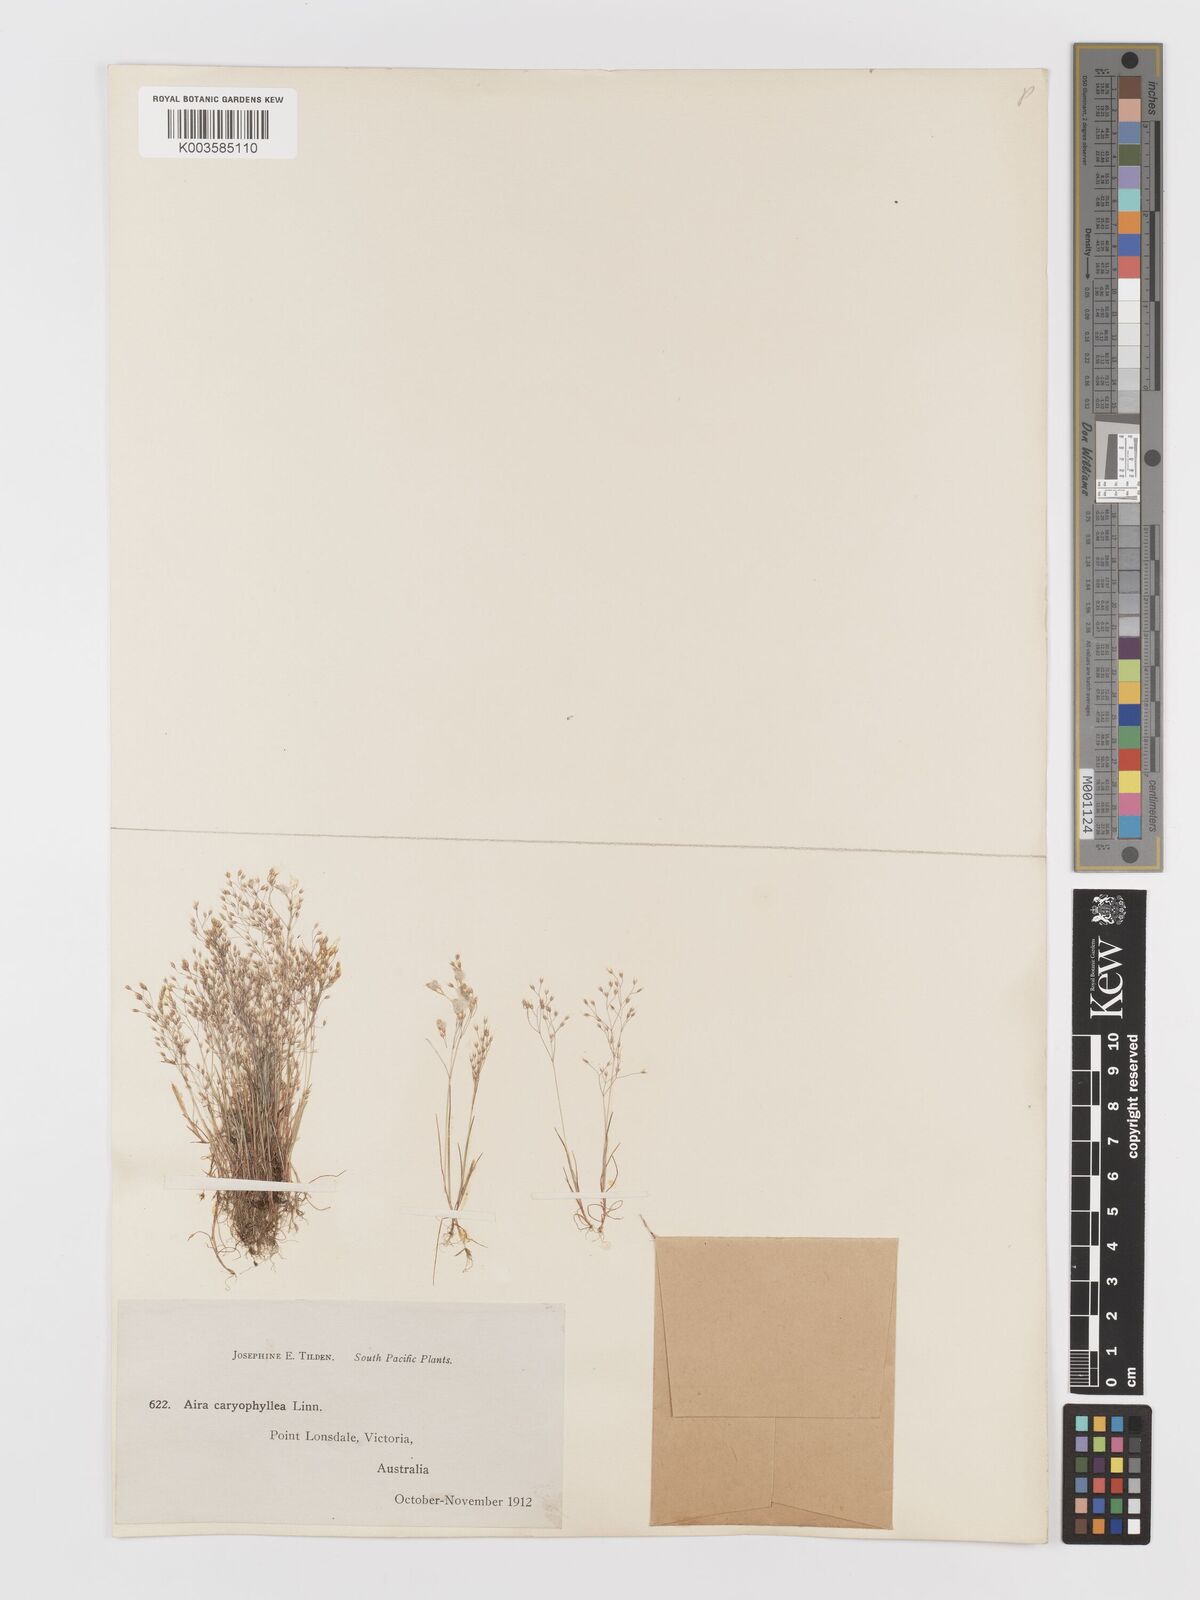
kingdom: Plantae
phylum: Tracheophyta
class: Liliopsida
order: Poales
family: Poaceae
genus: Aira
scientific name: Aira caryophyllea
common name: Silver hairgrass
